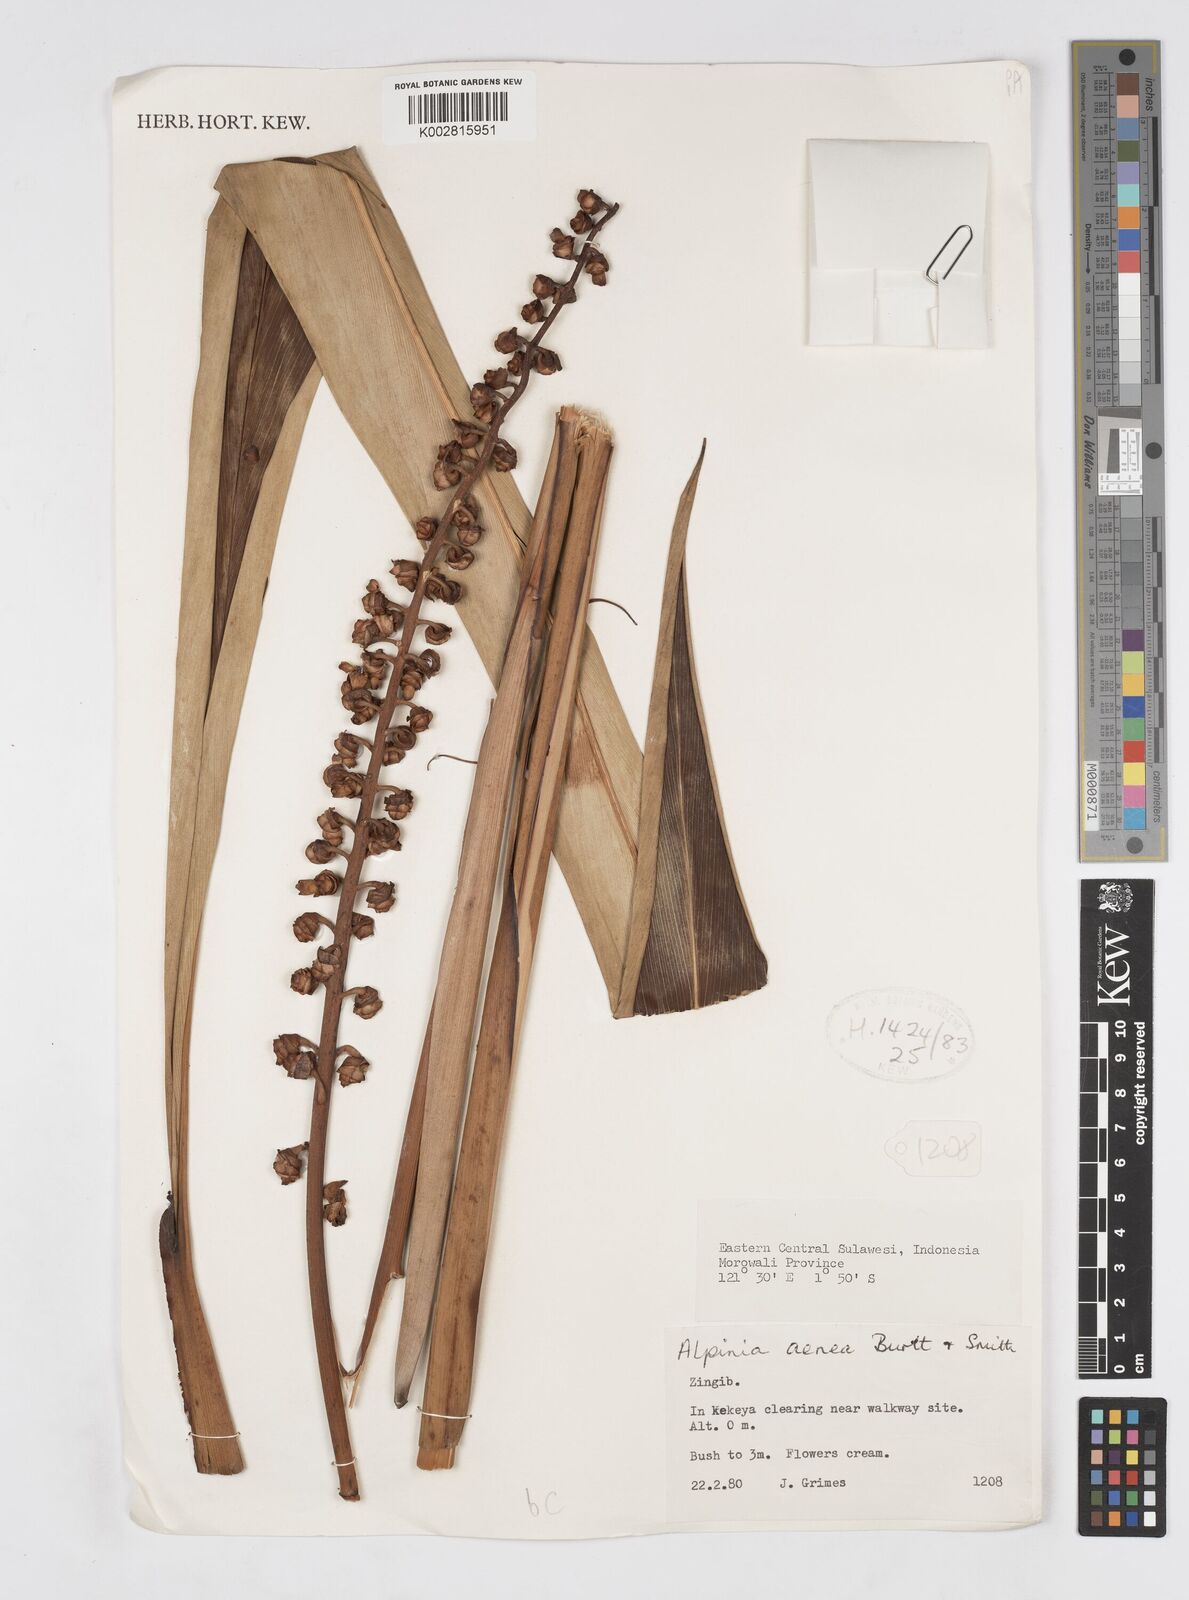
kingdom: Plantae
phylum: Tracheophyta
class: Liliopsida
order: Zingiberales
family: Zingiberaceae
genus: Alpinia
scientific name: Alpinia aenea
